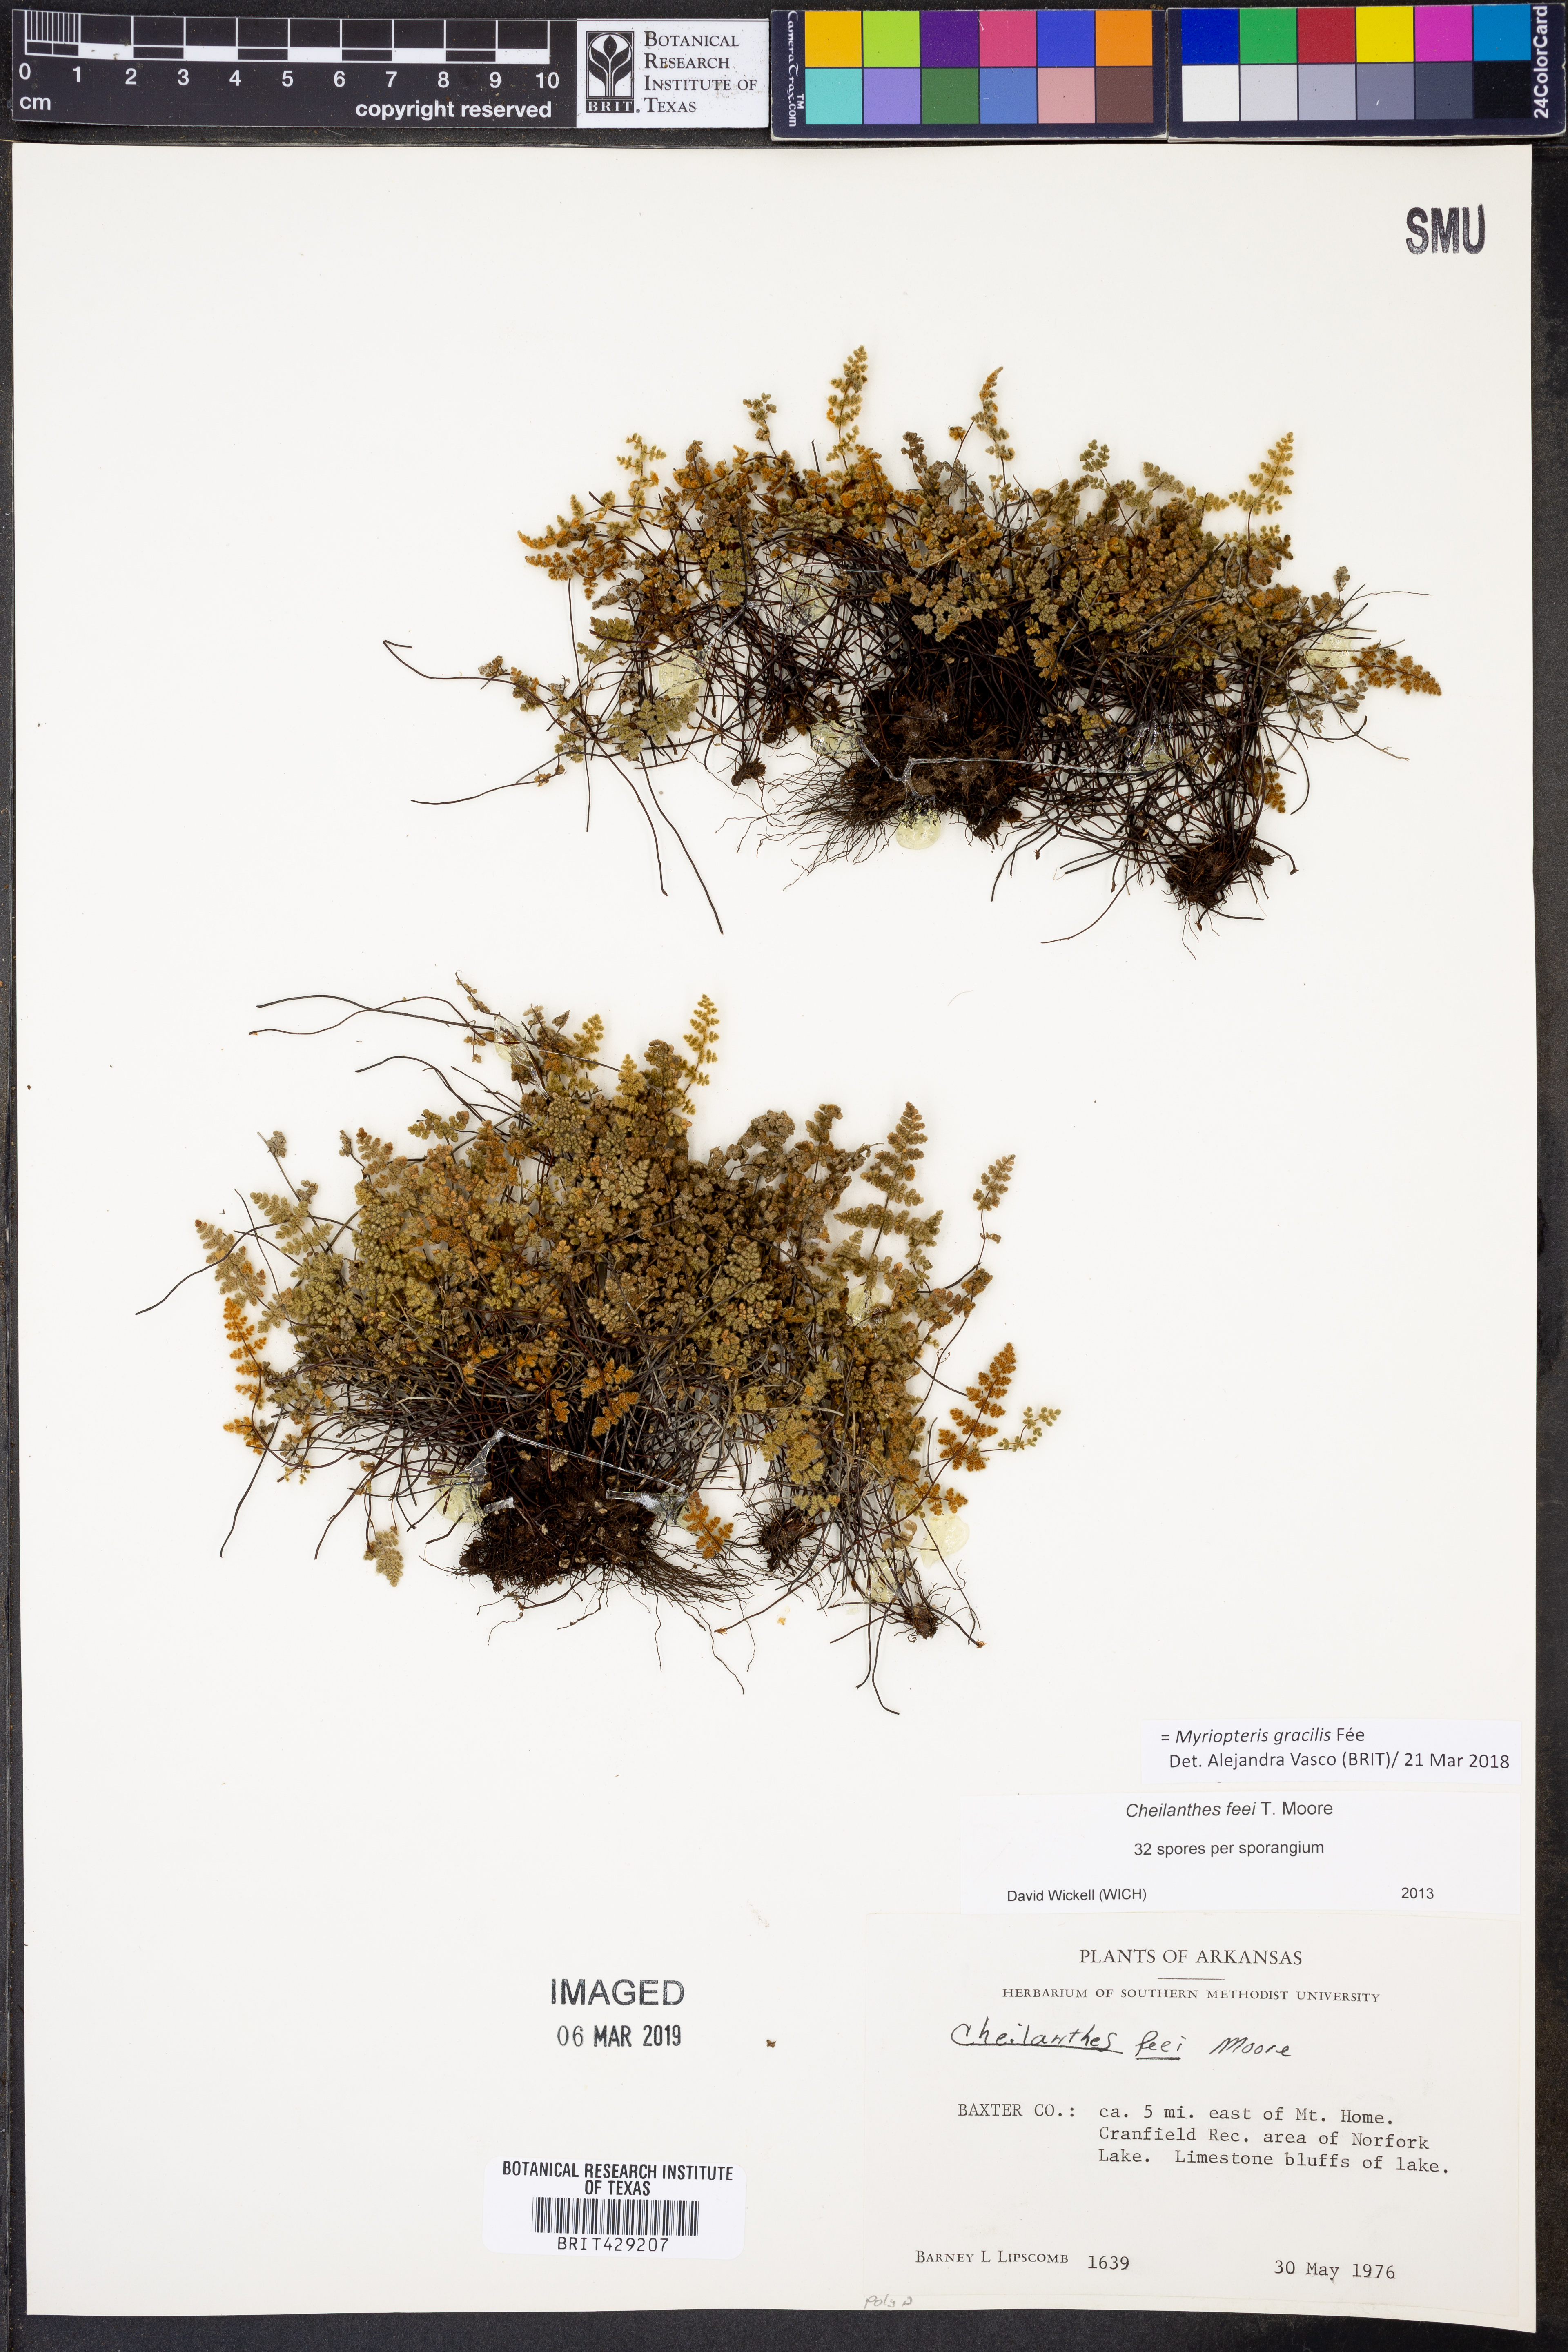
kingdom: Plantae
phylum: Tracheophyta
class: Polypodiopsida
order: Polypodiales
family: Pteridaceae
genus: Myriopteris
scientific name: Myriopteris gracilis
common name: Fee's lip fern
